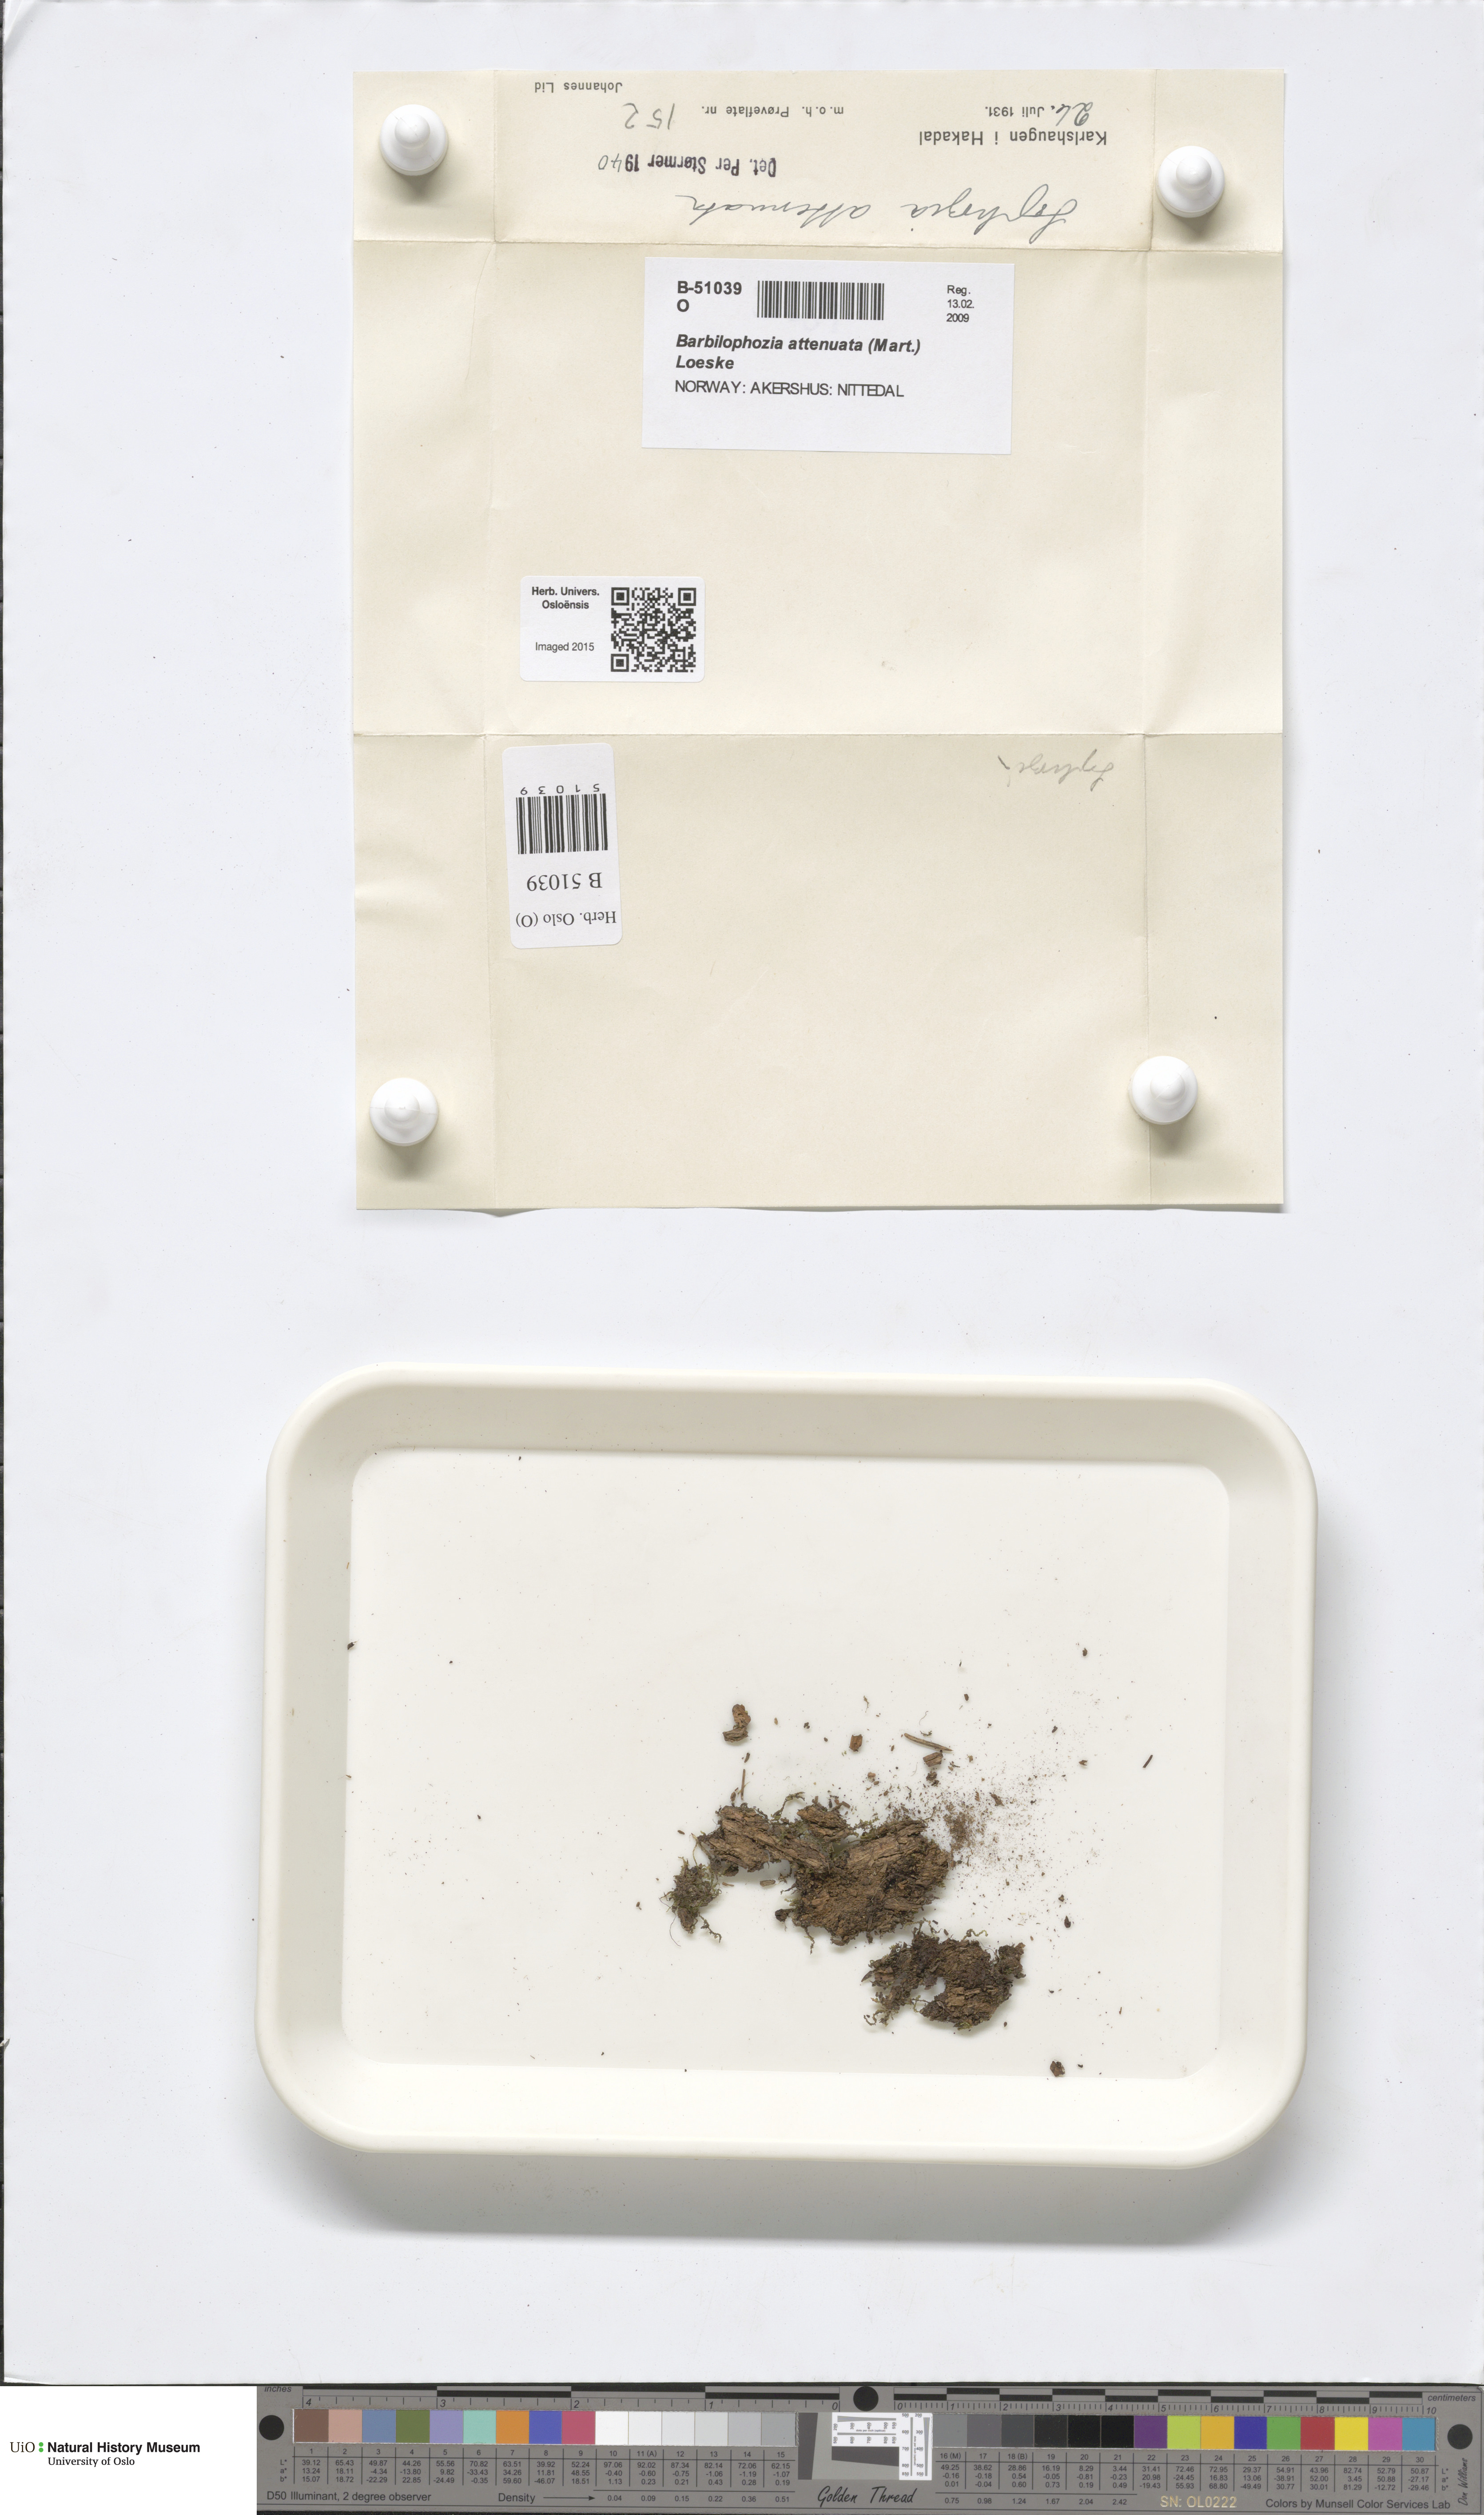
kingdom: Plantae
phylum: Marchantiophyta
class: Jungermanniopsida
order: Jungermanniales
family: Anastrophyllaceae
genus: Neoorthocaulis
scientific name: Neoorthocaulis attenuatus
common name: Trunk pawwort
